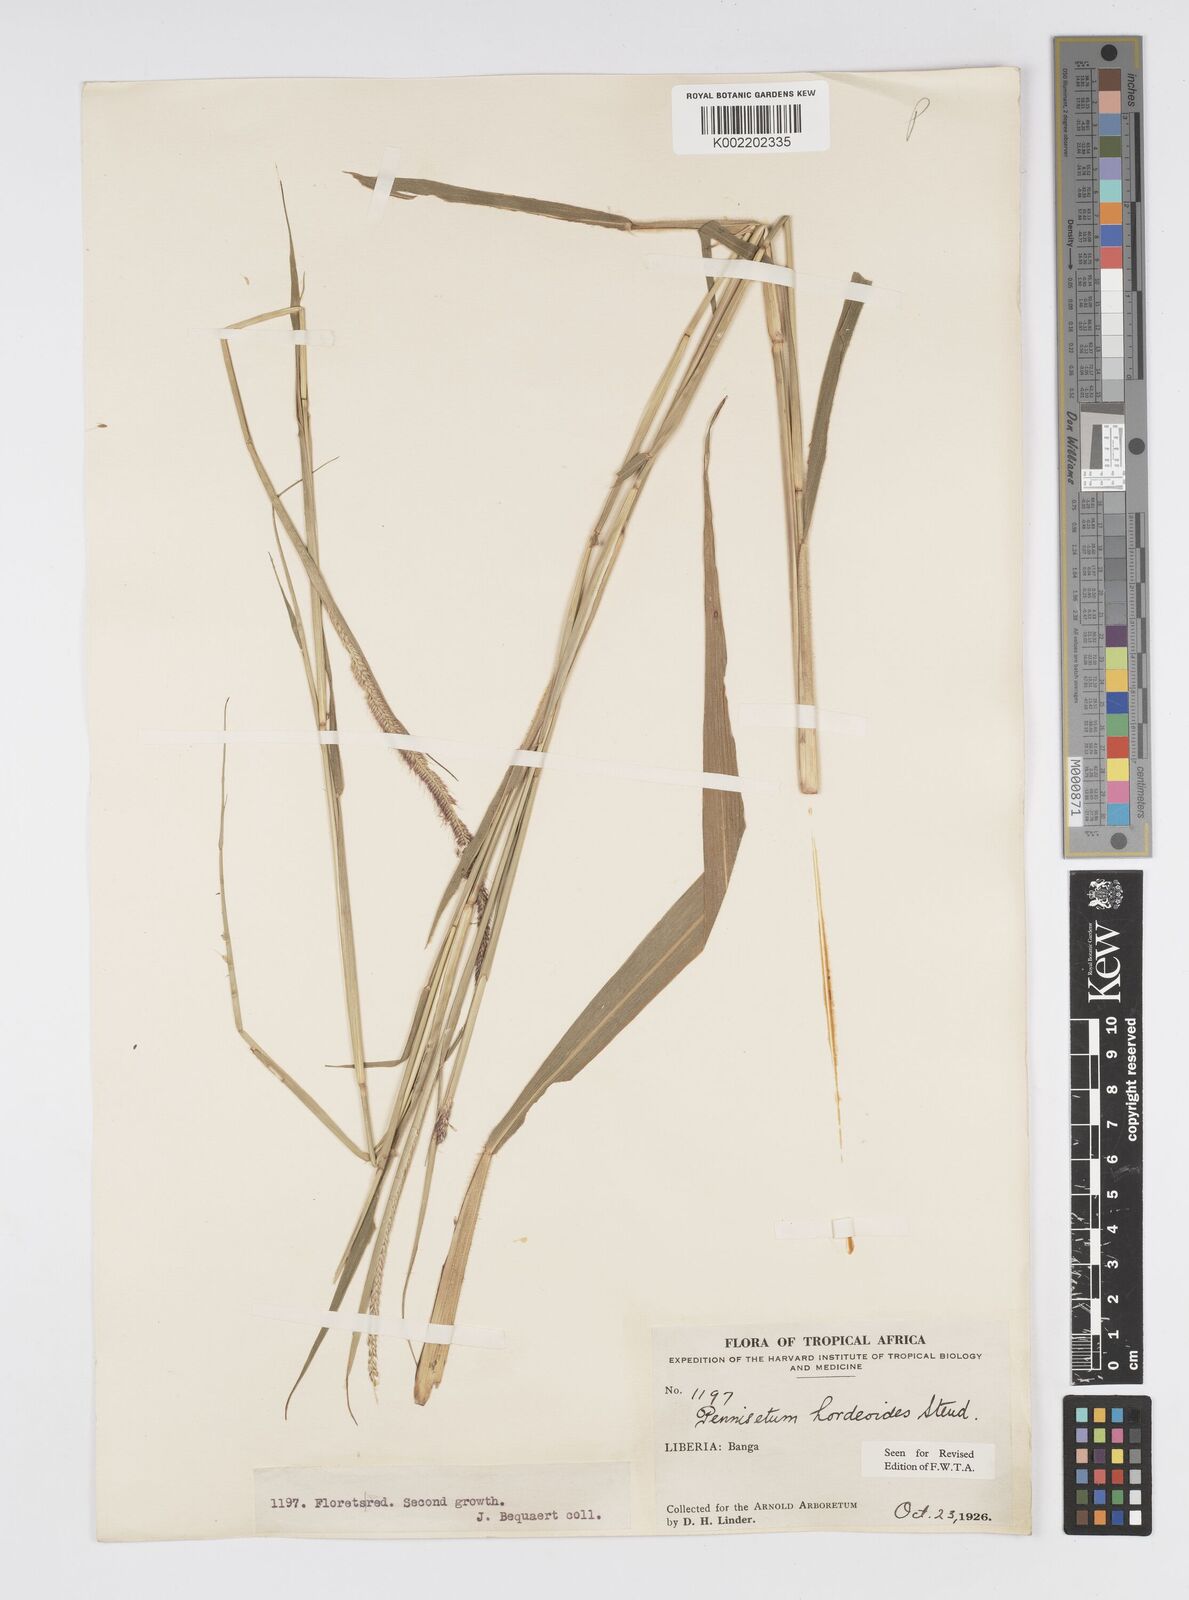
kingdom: Plantae
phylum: Tracheophyta
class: Liliopsida
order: Poales
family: Poaceae
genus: Cenchrus
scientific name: Cenchrus hordeoides
